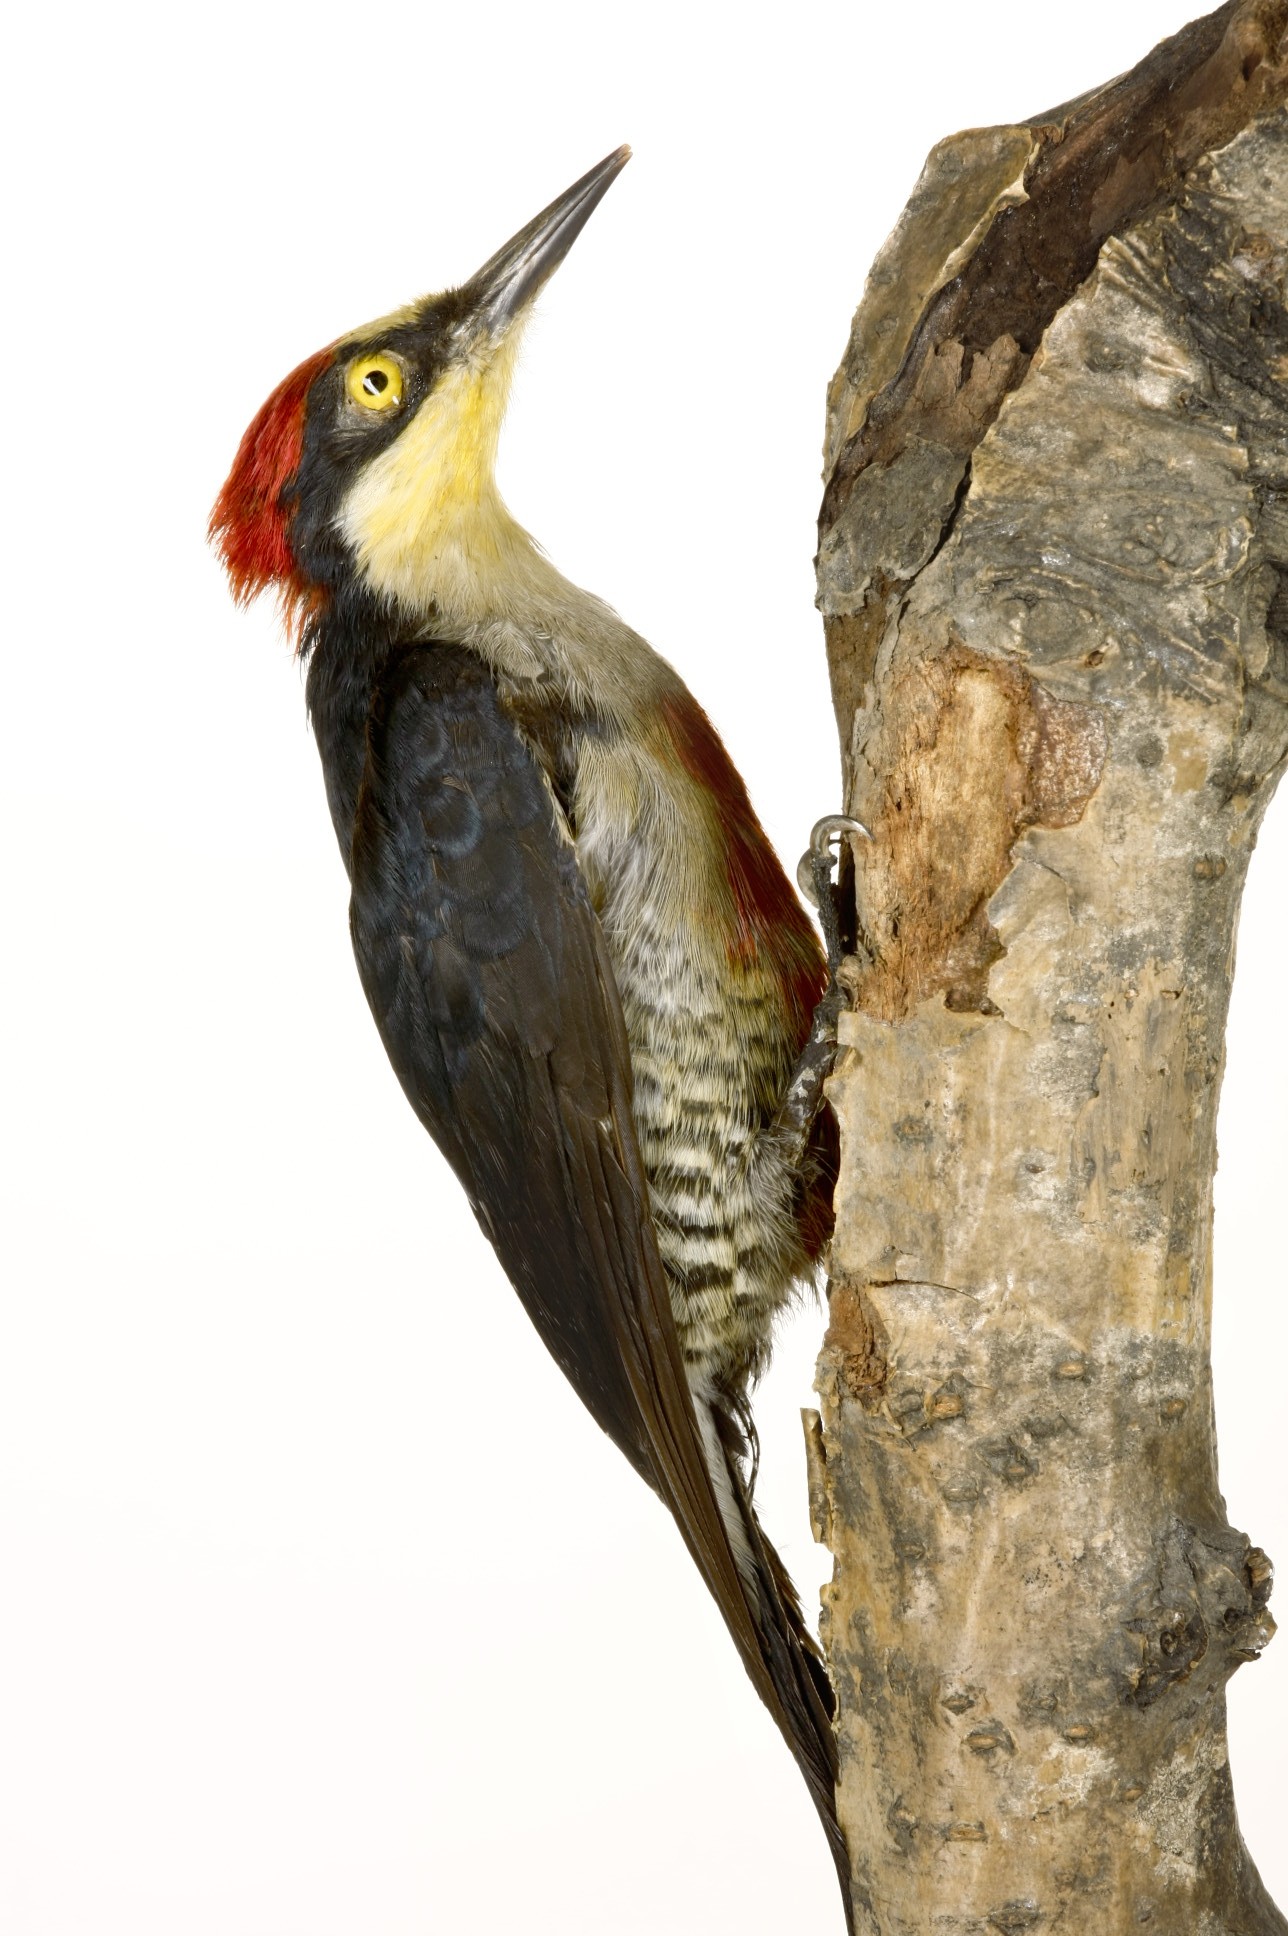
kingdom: Animalia
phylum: Chordata
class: Aves
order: Piciformes
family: Picidae
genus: Melanerpes
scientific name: Melanerpes flavifrons
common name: Yellow-fronted woodpecker
